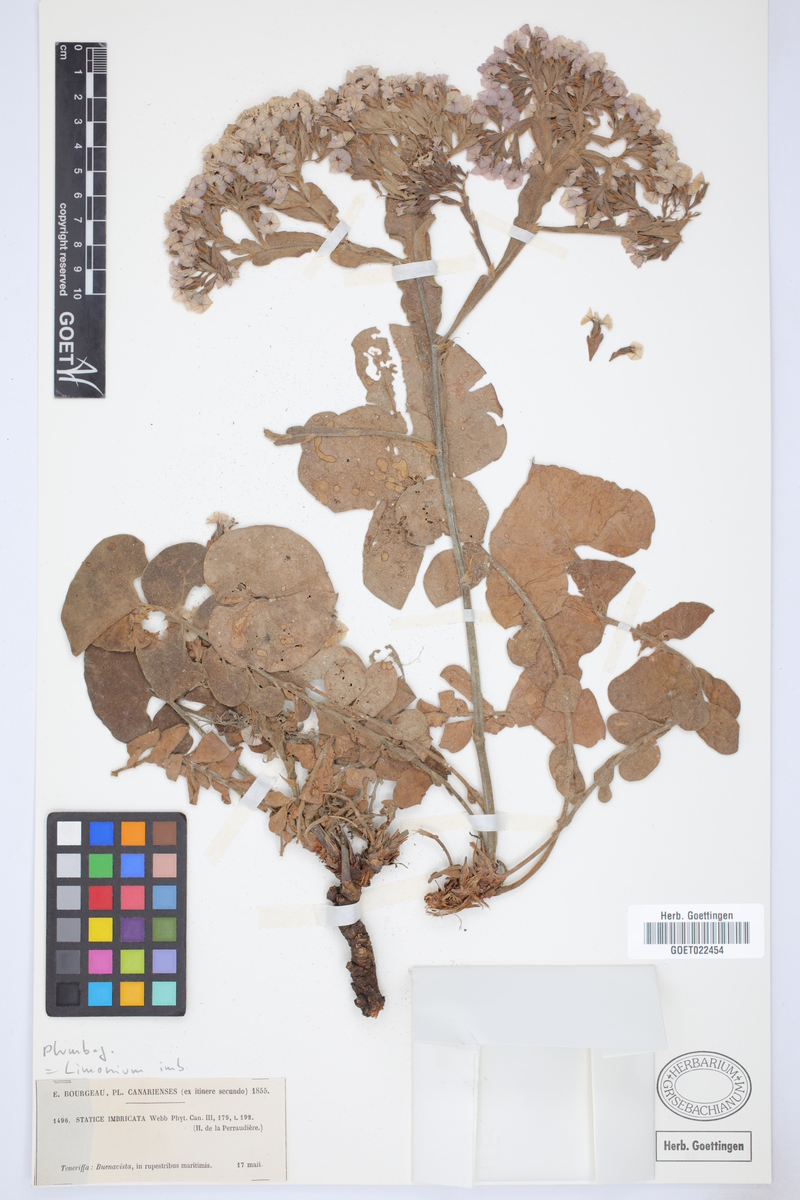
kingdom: Plantae
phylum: Tracheophyta
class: Magnoliopsida
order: Caryophyllales
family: Plumbaginaceae
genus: Limonium
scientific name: Limonium imbricatum
